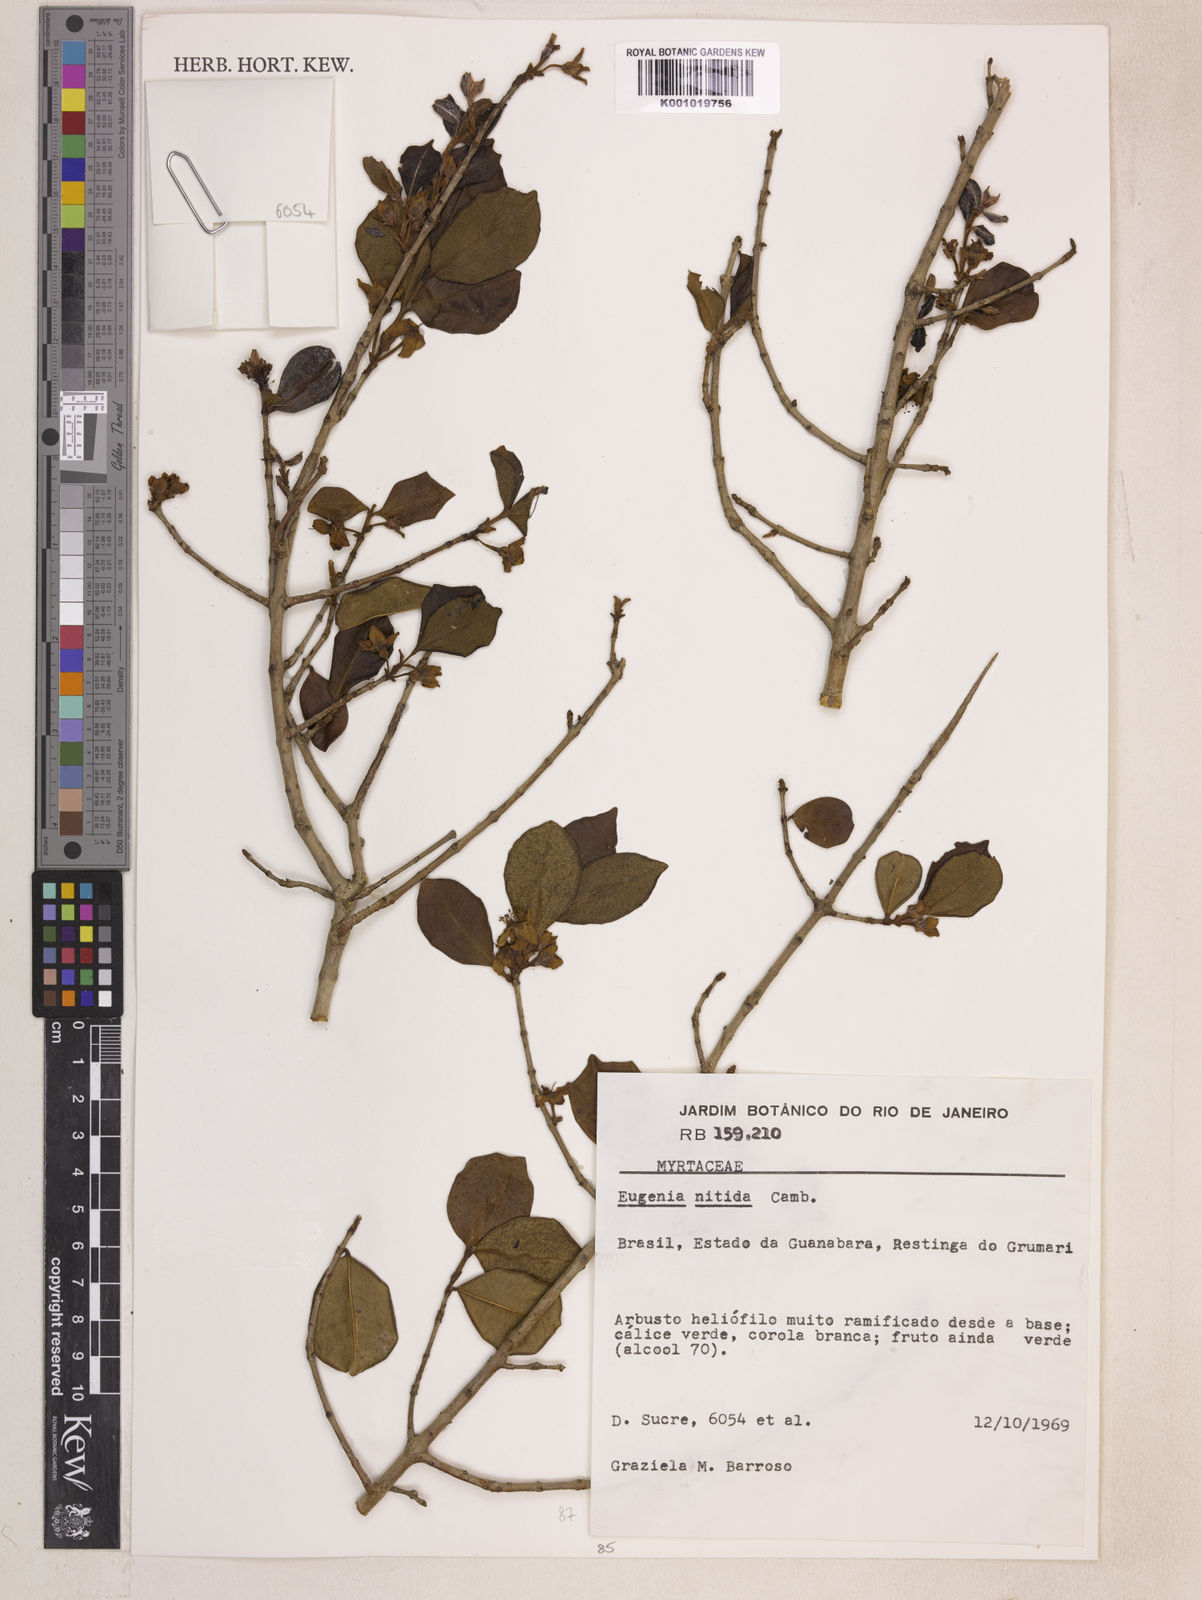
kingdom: Plantae
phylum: Tracheophyta
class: Magnoliopsida
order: Myrtales
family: Myrtaceae
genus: Eugenia
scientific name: Eugenia selloi
